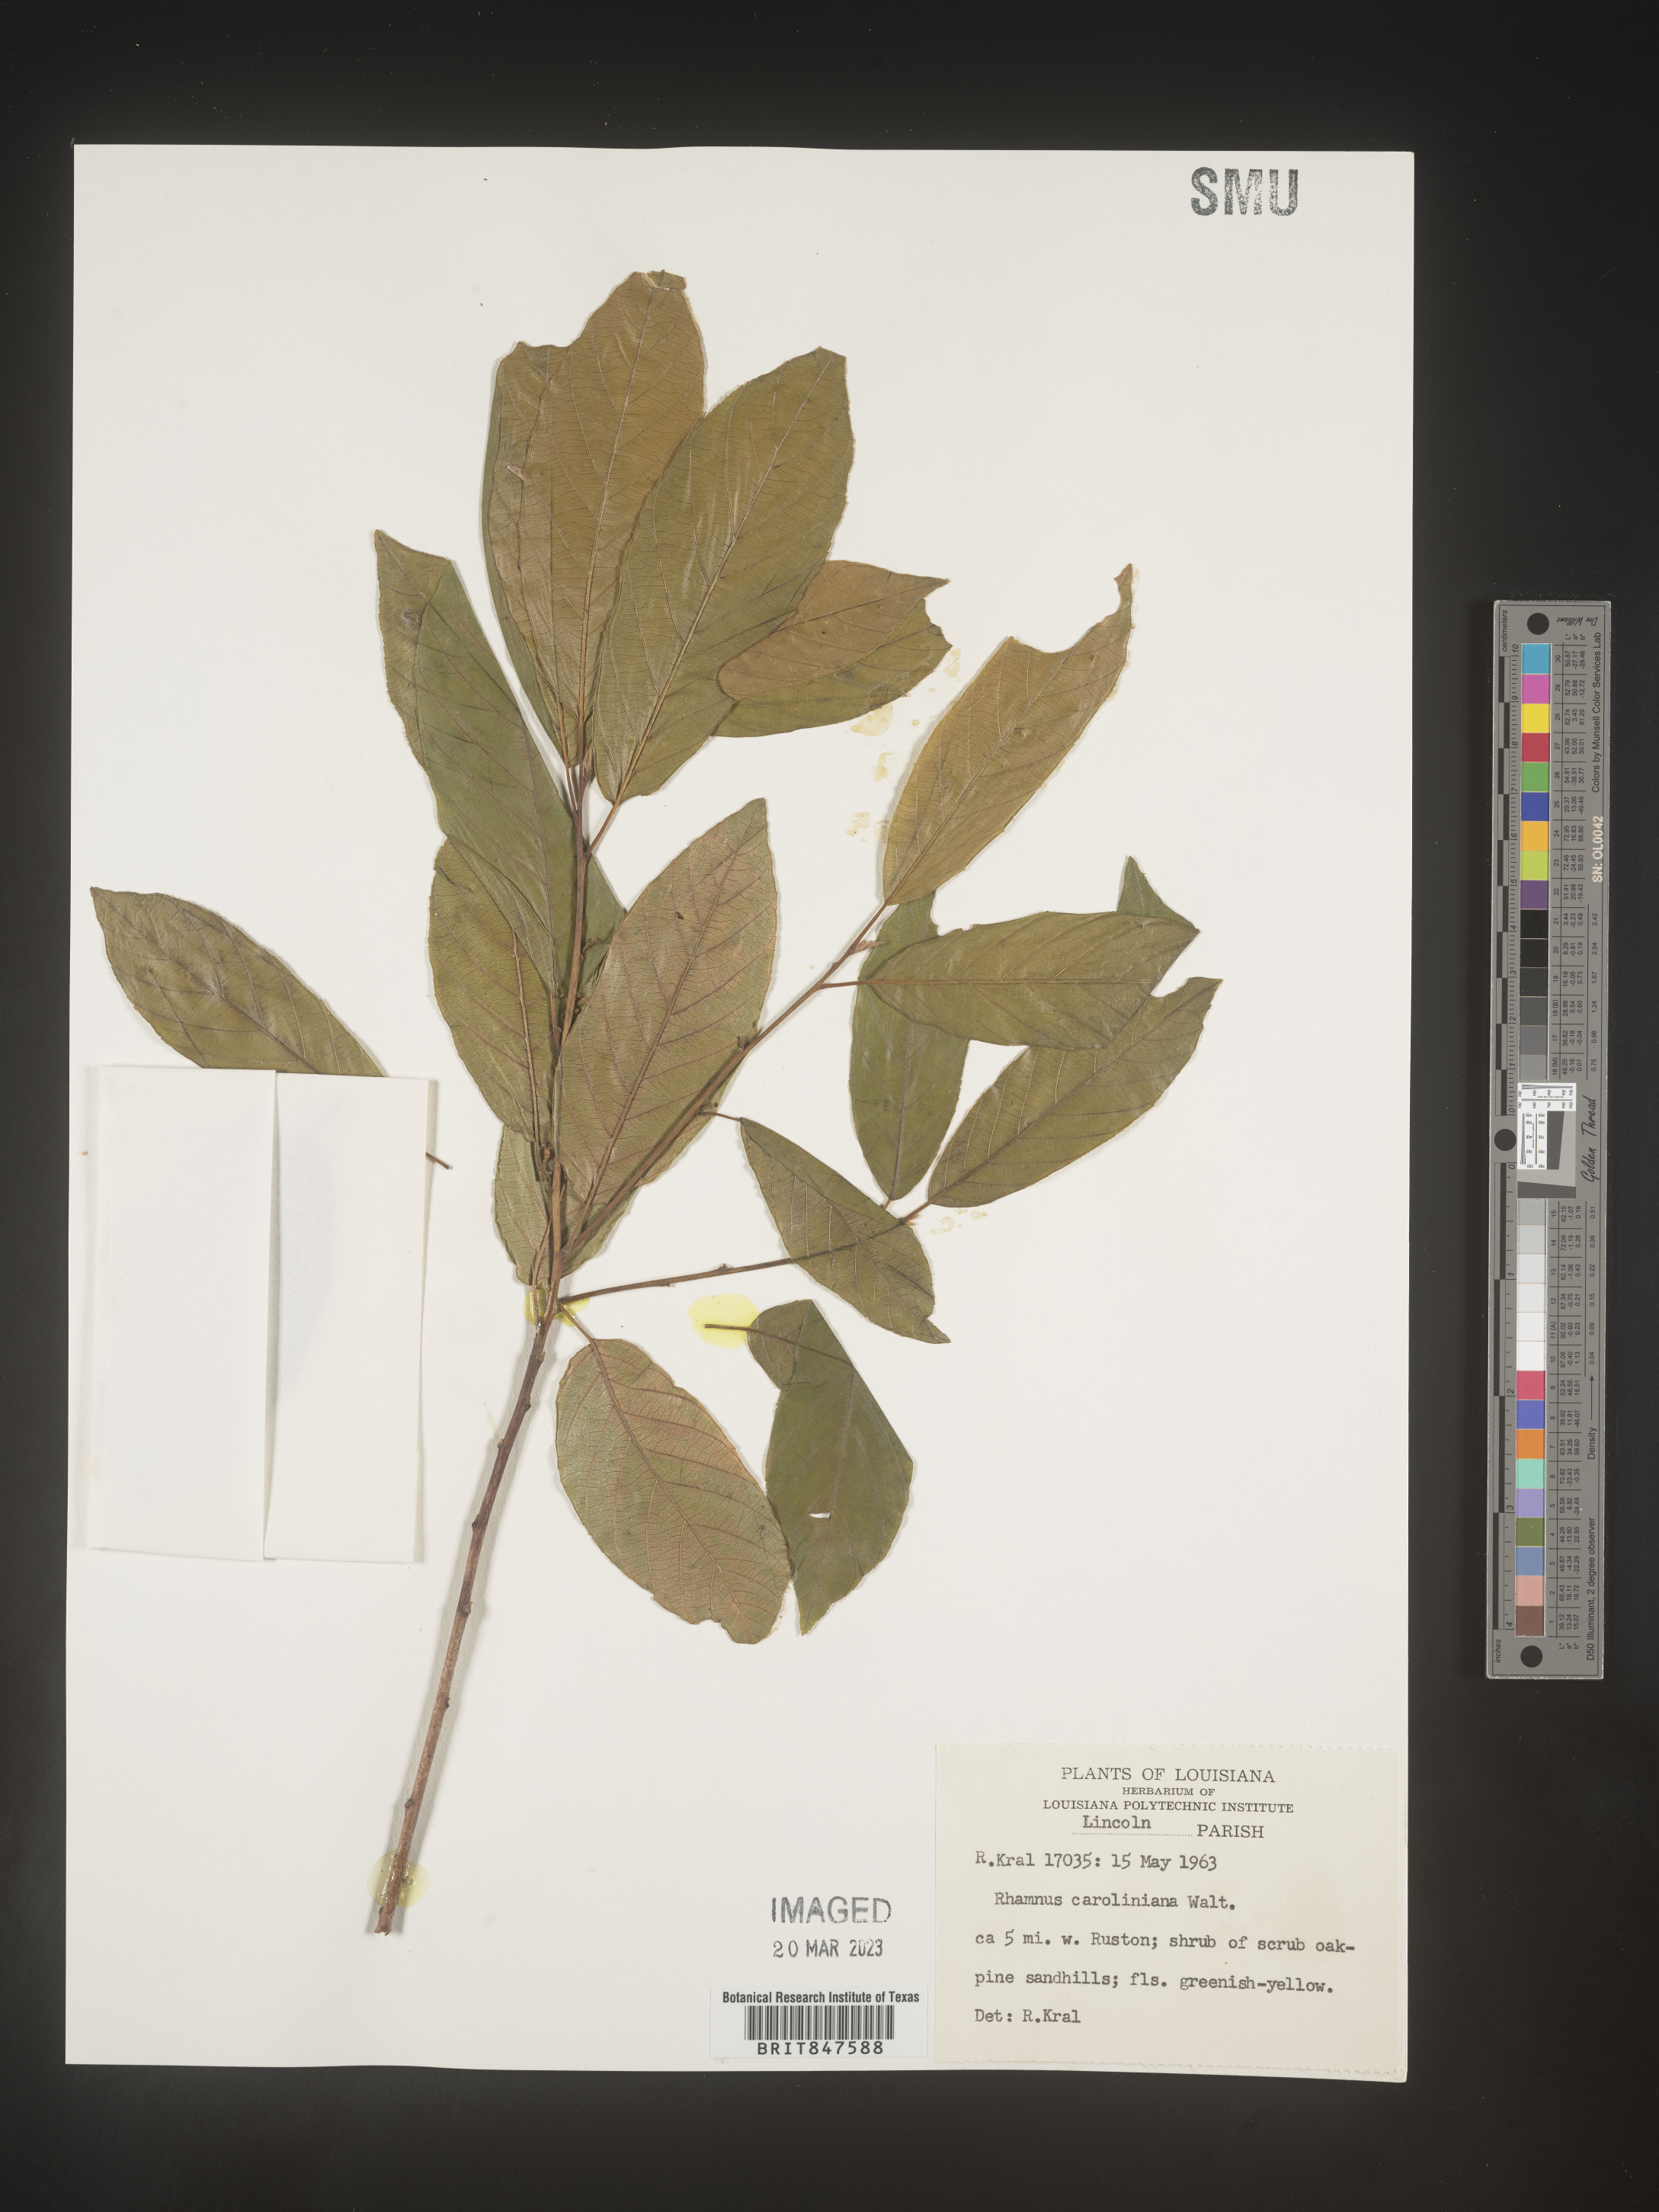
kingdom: Plantae
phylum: Tracheophyta
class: Magnoliopsida
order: Rosales
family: Rhamnaceae
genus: Frangula
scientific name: Frangula caroliniana
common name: Carolina buckthorn
